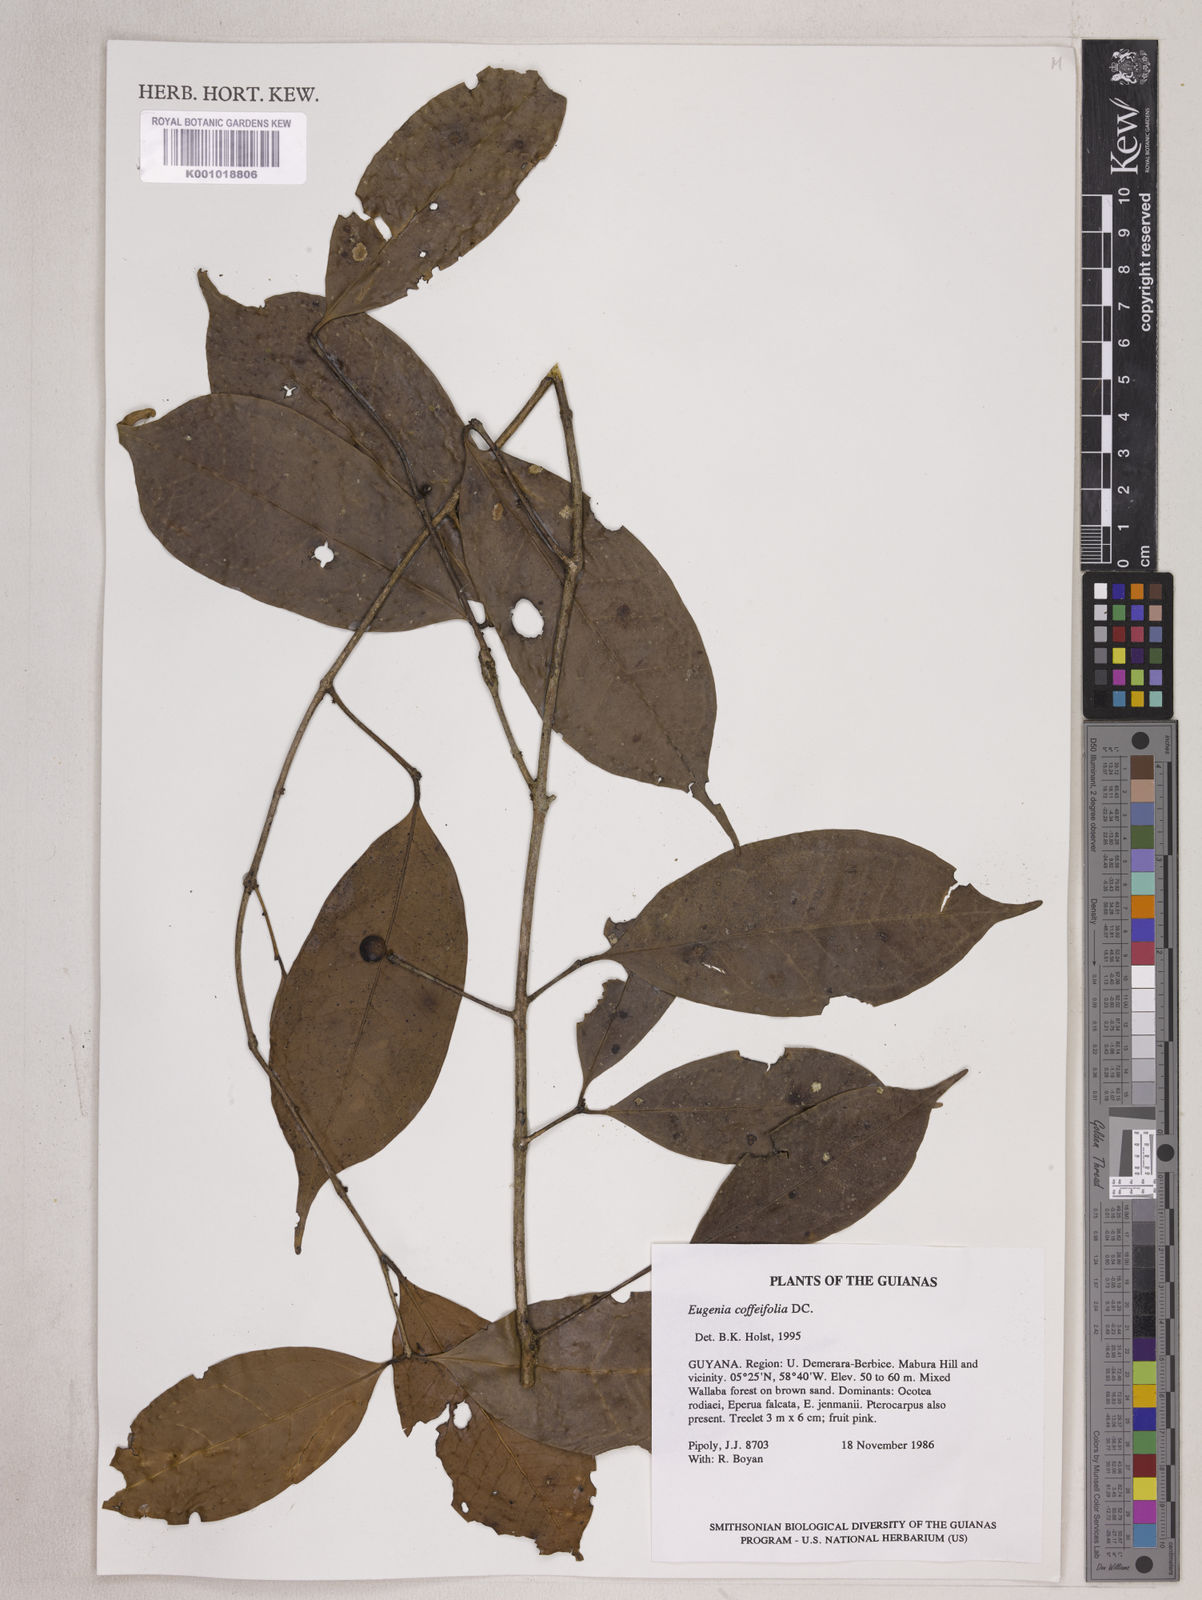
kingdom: Plantae
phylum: Tracheophyta
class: Magnoliopsida
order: Myrtales
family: Myrtaceae
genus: Eugenia
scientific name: Eugenia coffeifolia
